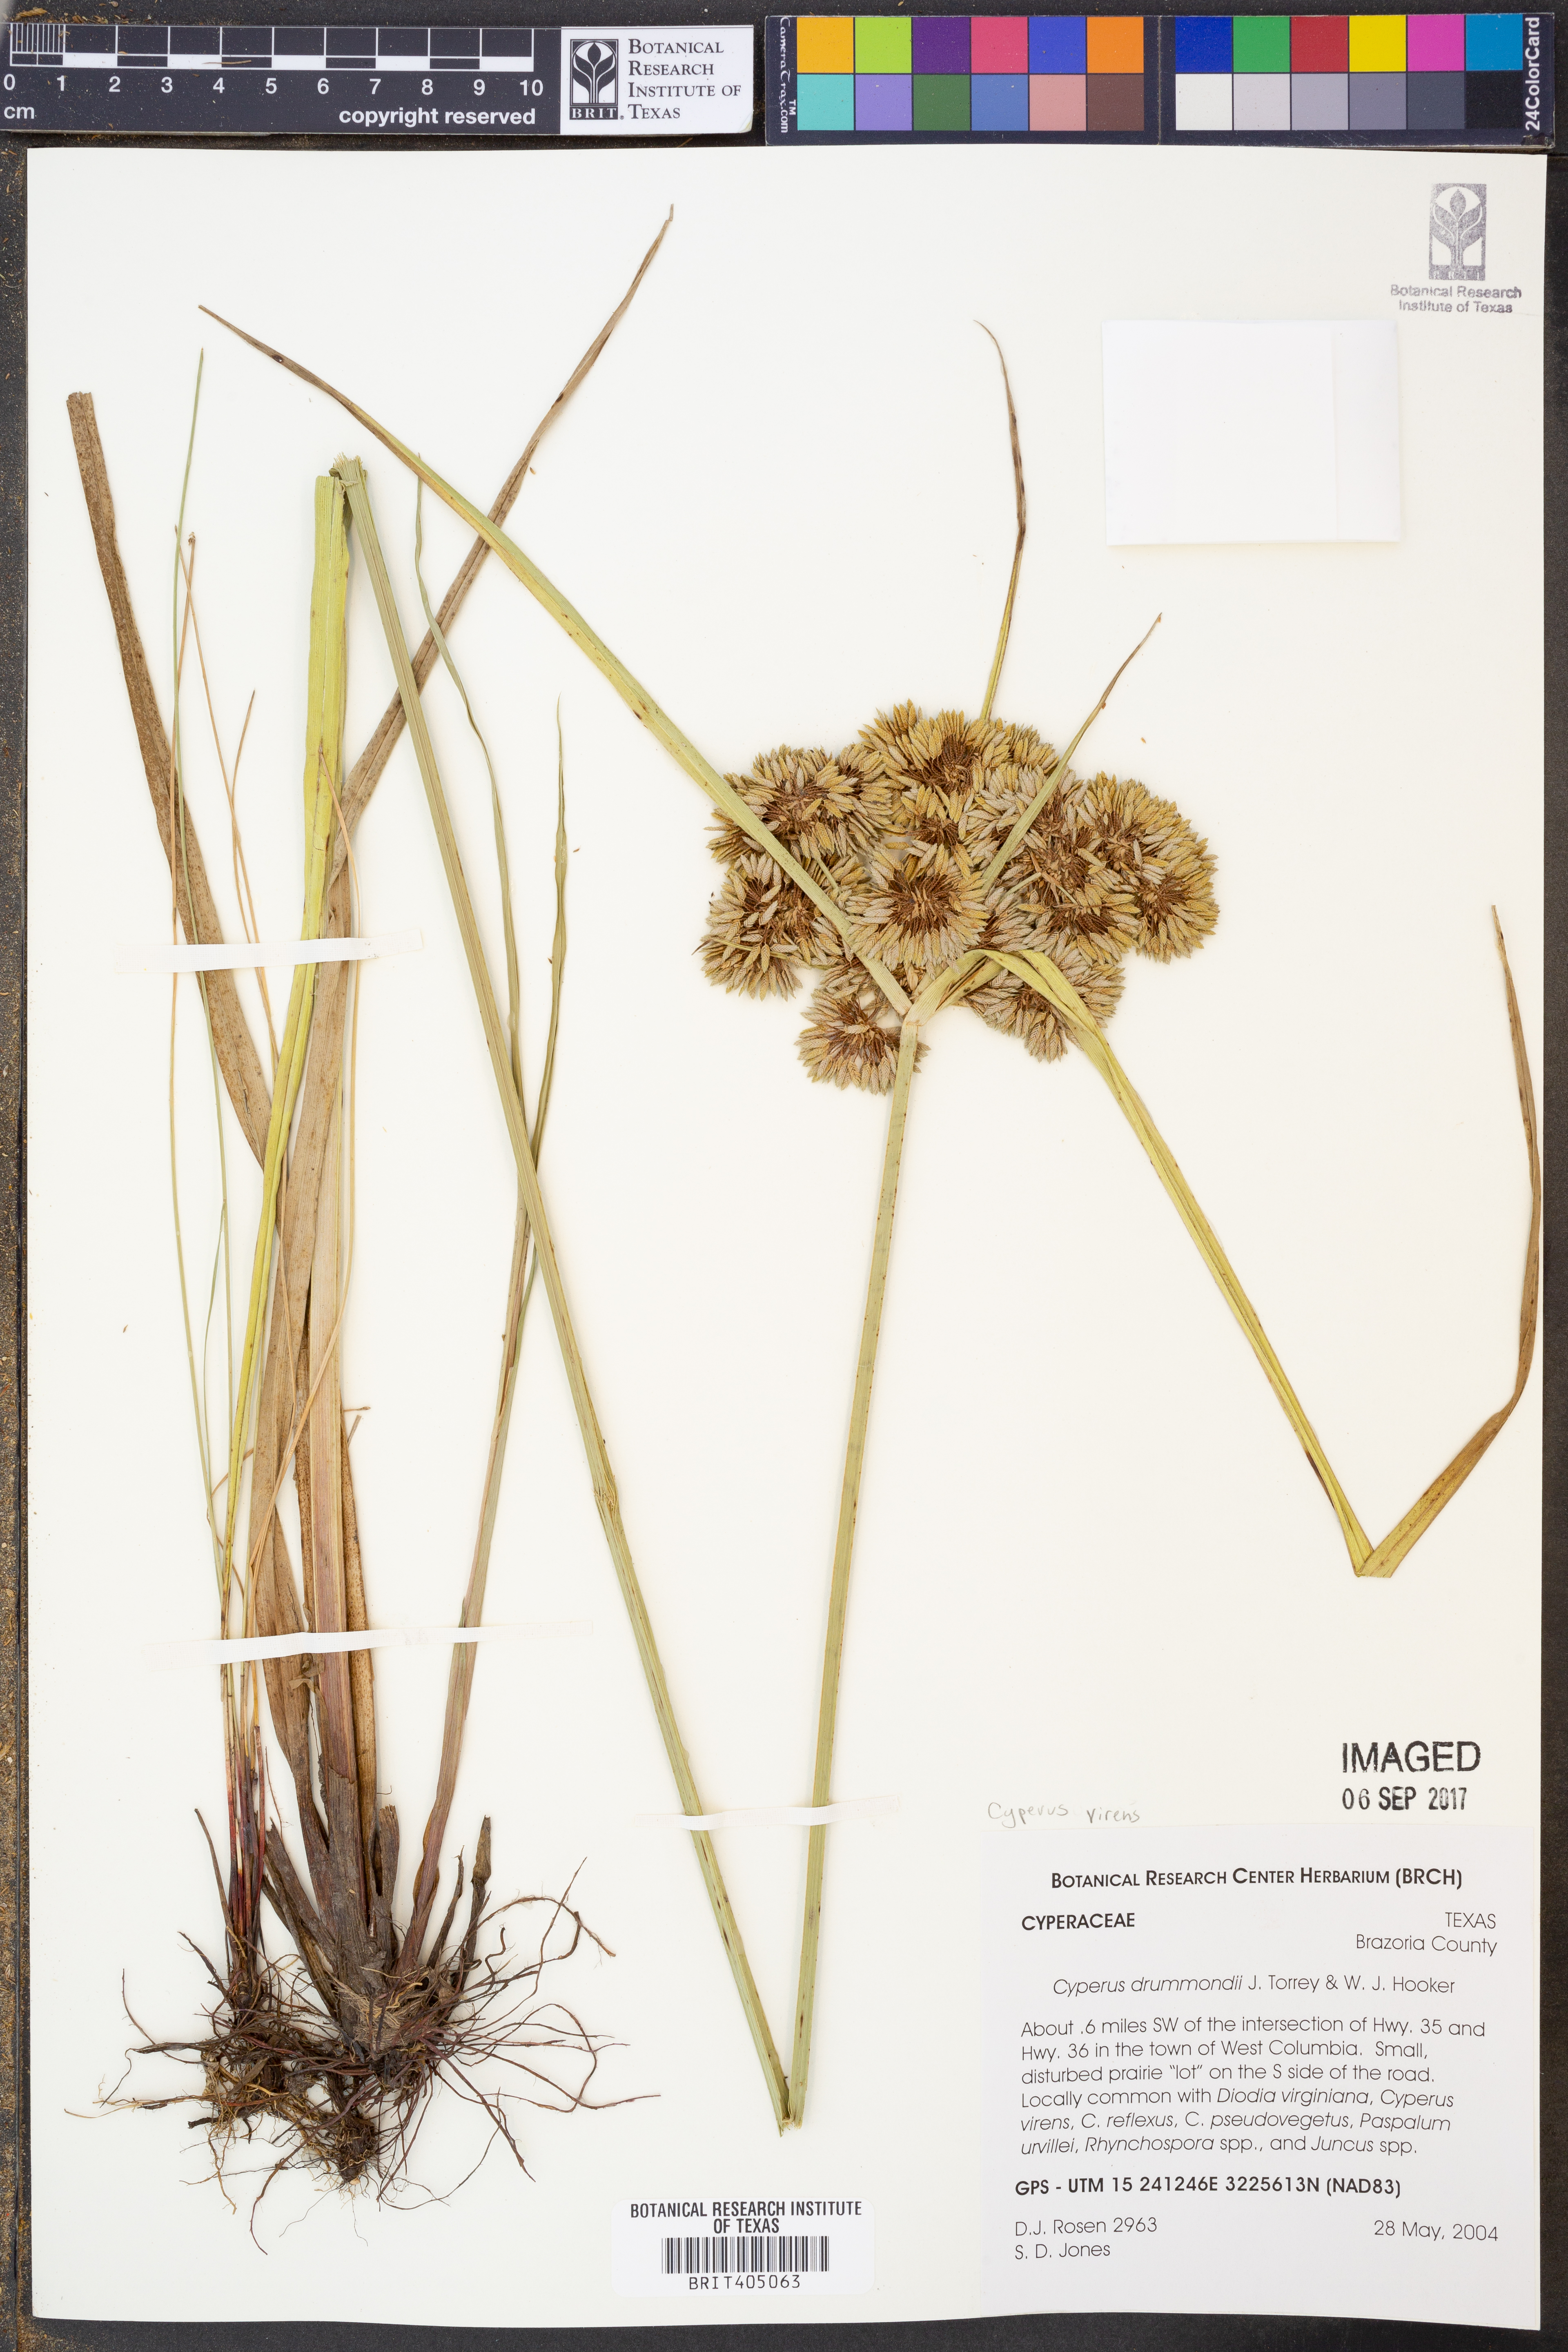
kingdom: Plantae
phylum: Tracheophyta
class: Liliopsida
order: Poales
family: Cyperaceae
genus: Cyperus
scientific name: Cyperus virens
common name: Green flatsedge
